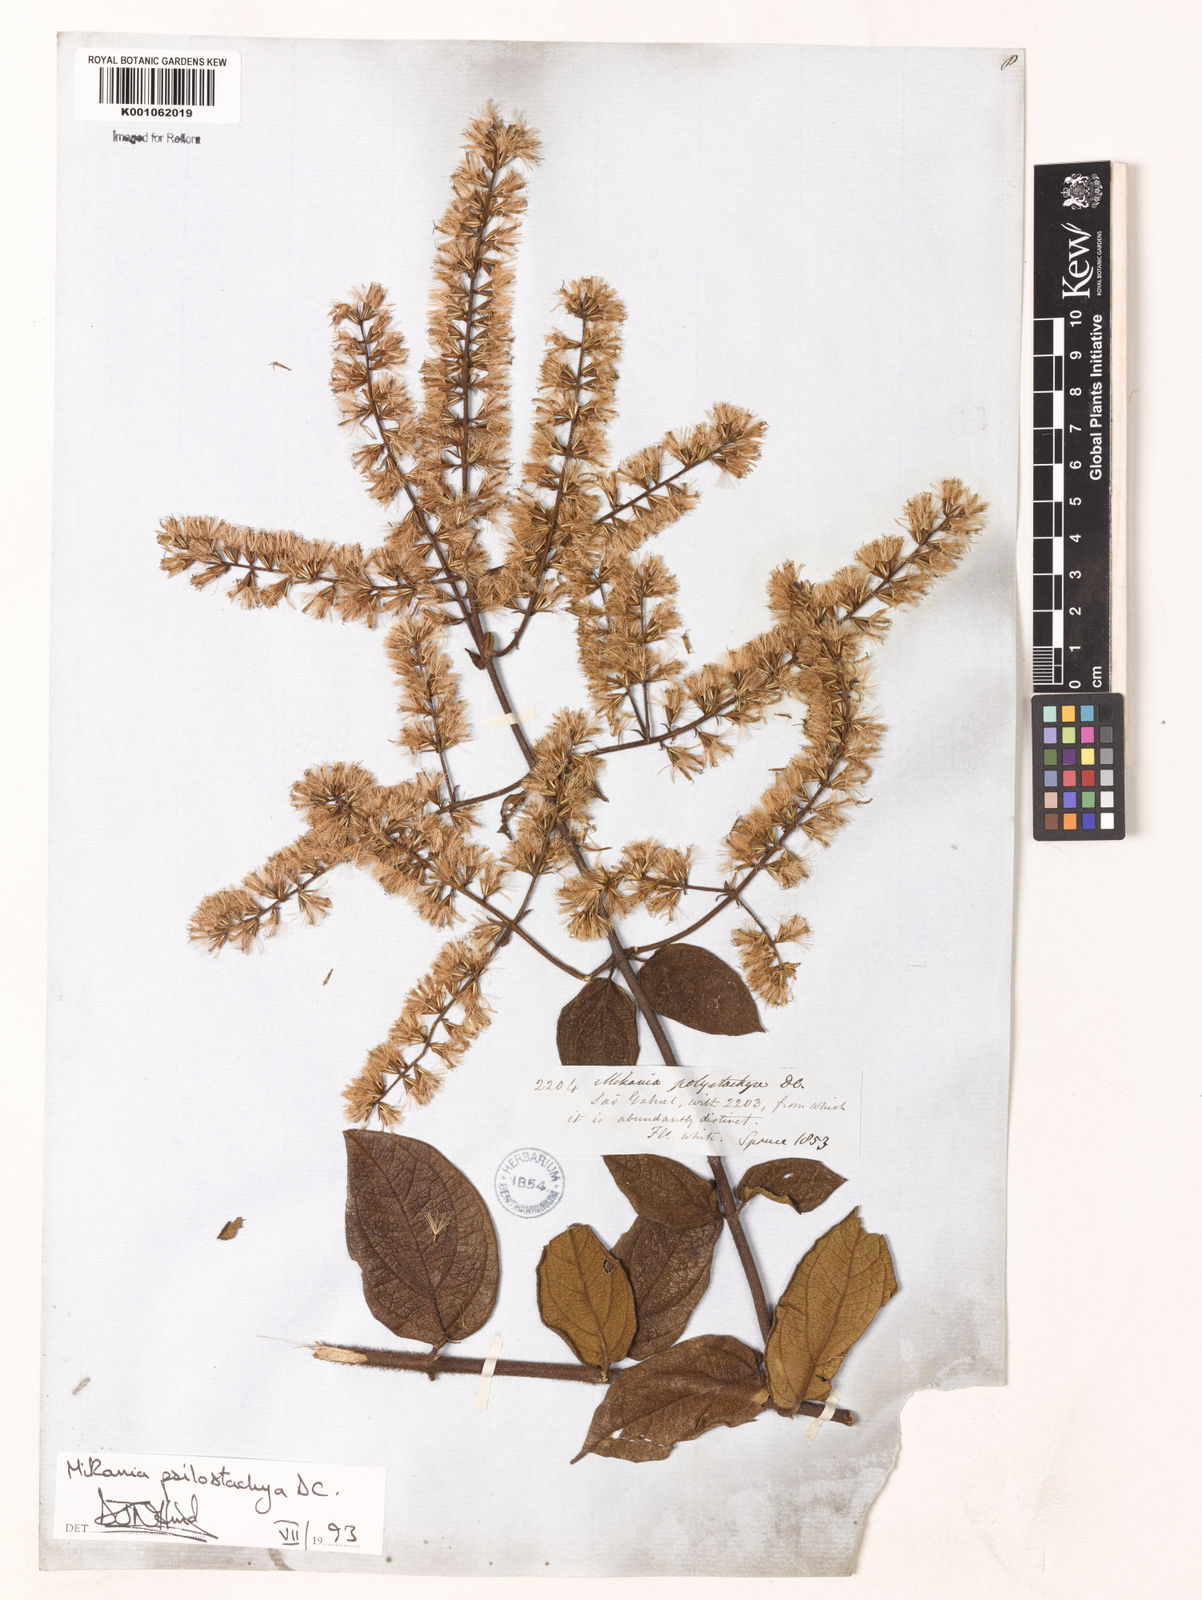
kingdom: Plantae
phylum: Tracheophyta
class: Magnoliopsida
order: Asterales
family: Asteraceae
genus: Mikania
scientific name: Mikania psilostachya
